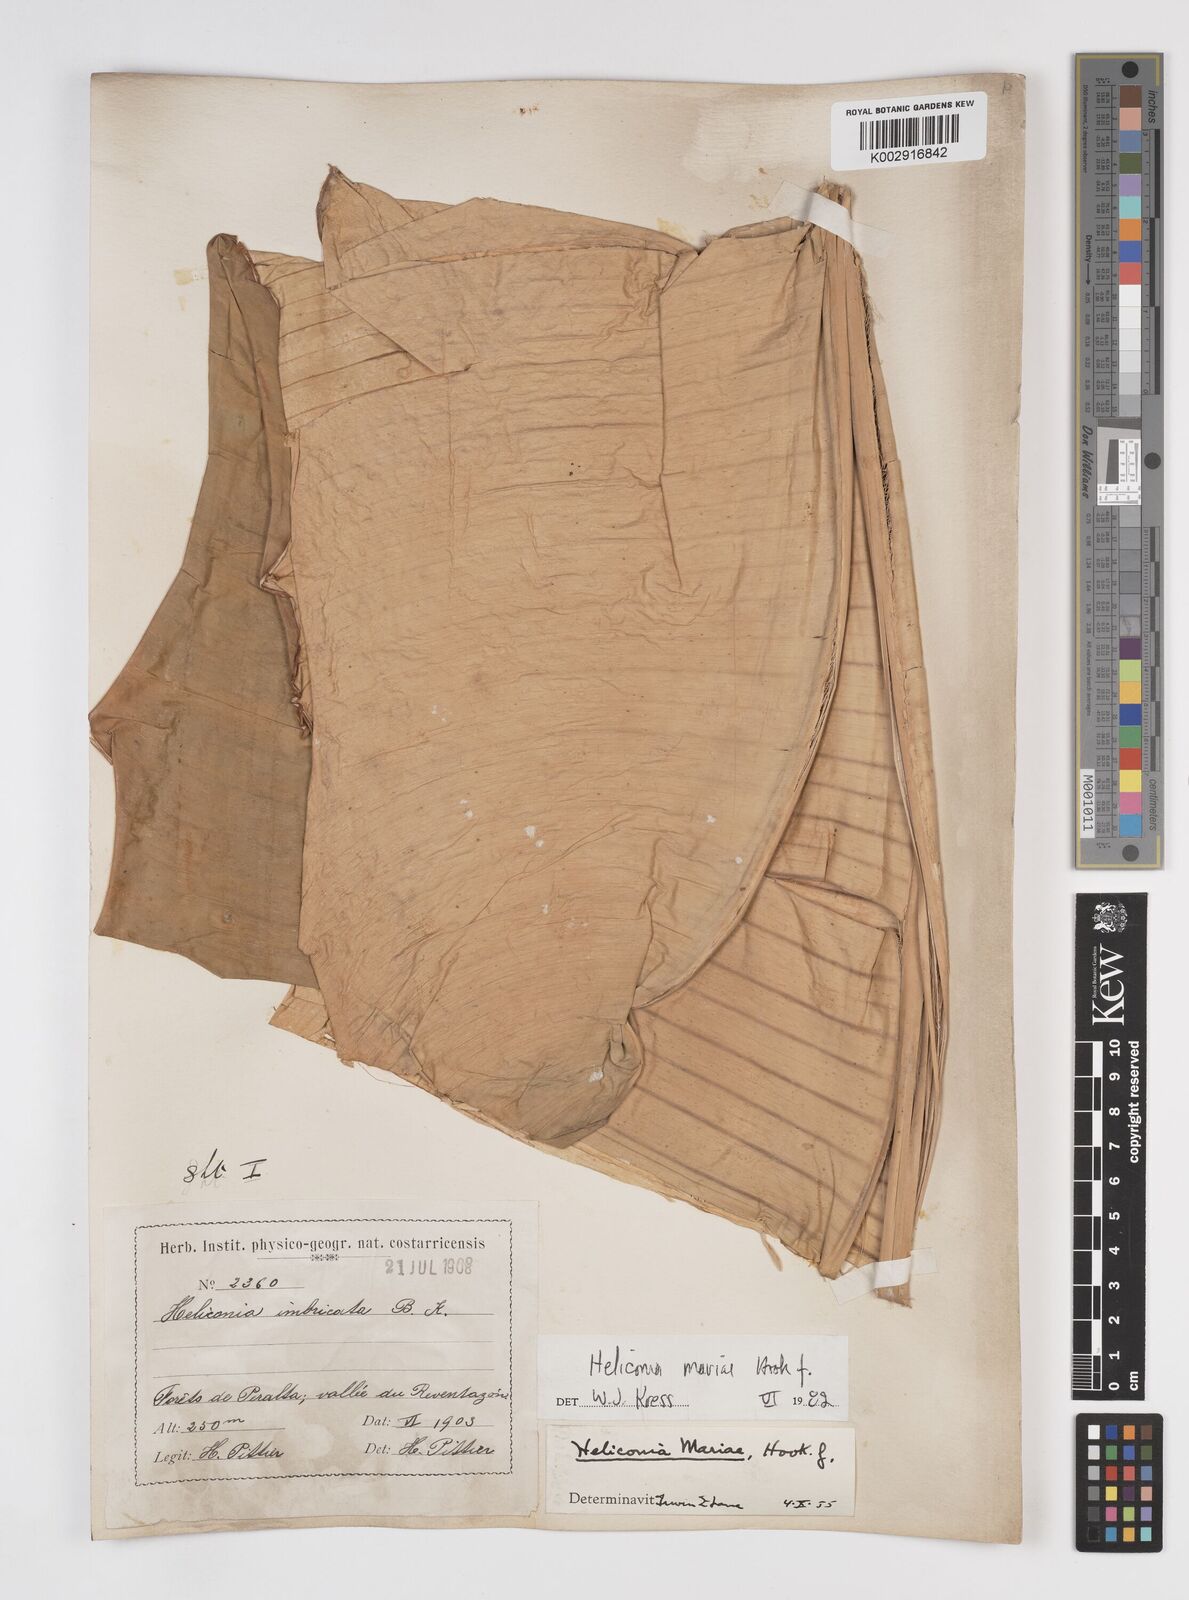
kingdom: Plantae
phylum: Tracheophyta
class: Liliopsida
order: Zingiberales
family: Heliconiaceae
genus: Heliconia
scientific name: Heliconia mariae
